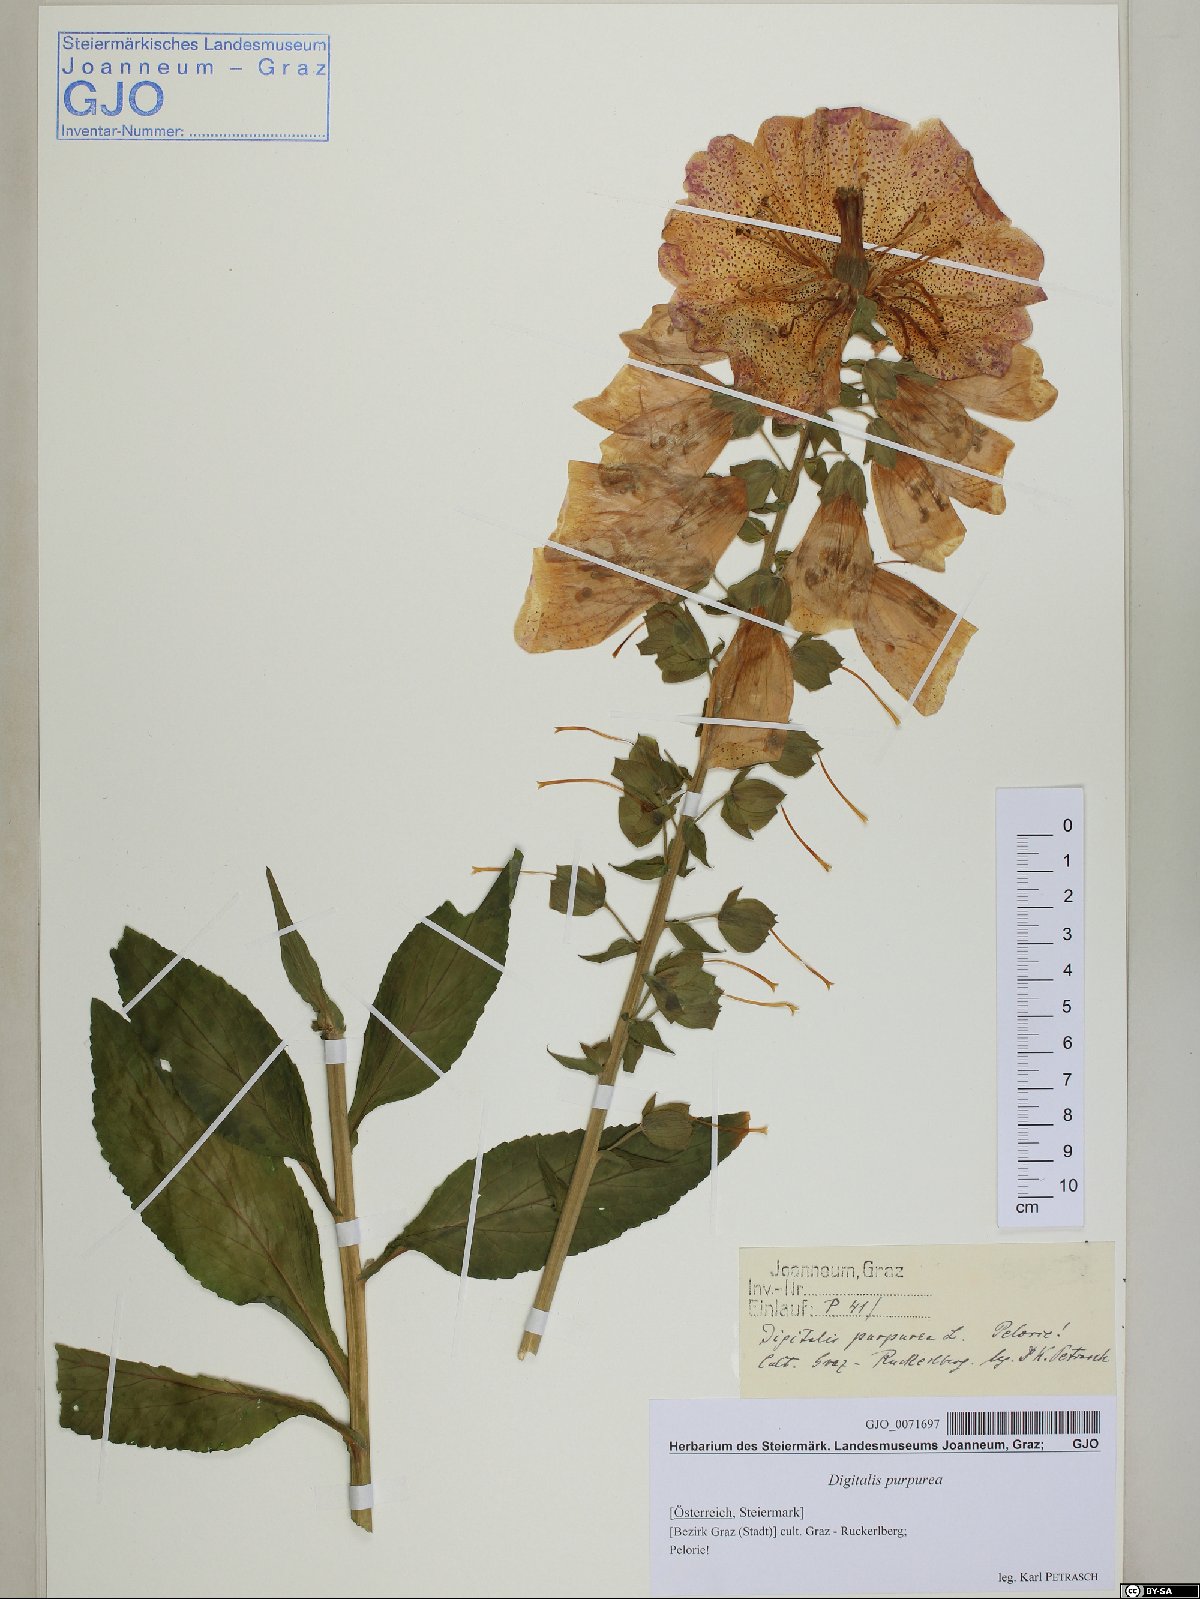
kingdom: Plantae
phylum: Tracheophyta
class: Magnoliopsida
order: Lamiales
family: Plantaginaceae
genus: Digitalis
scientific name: Digitalis purpurea
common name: Foxglove
